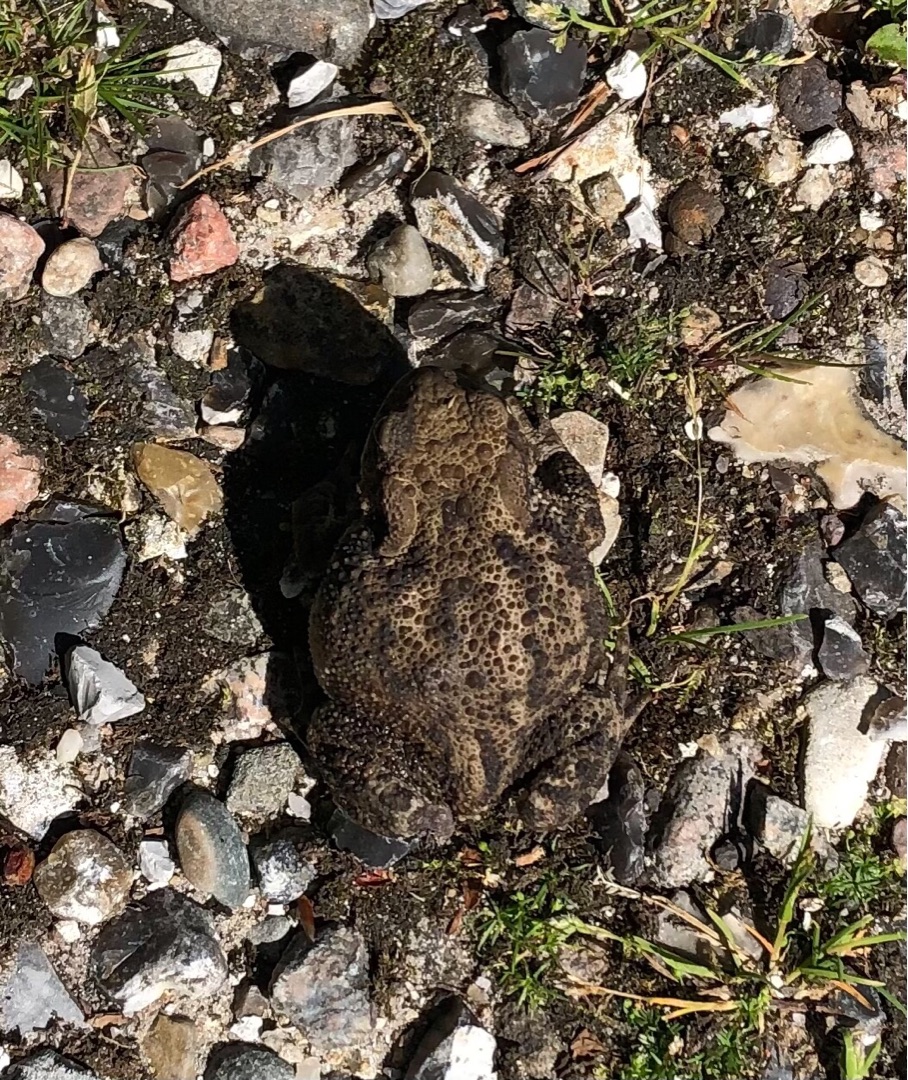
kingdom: Animalia
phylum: Chordata
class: Amphibia
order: Anura
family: Bufonidae
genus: Bufo
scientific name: Bufo bufo
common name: Skrubtudse
